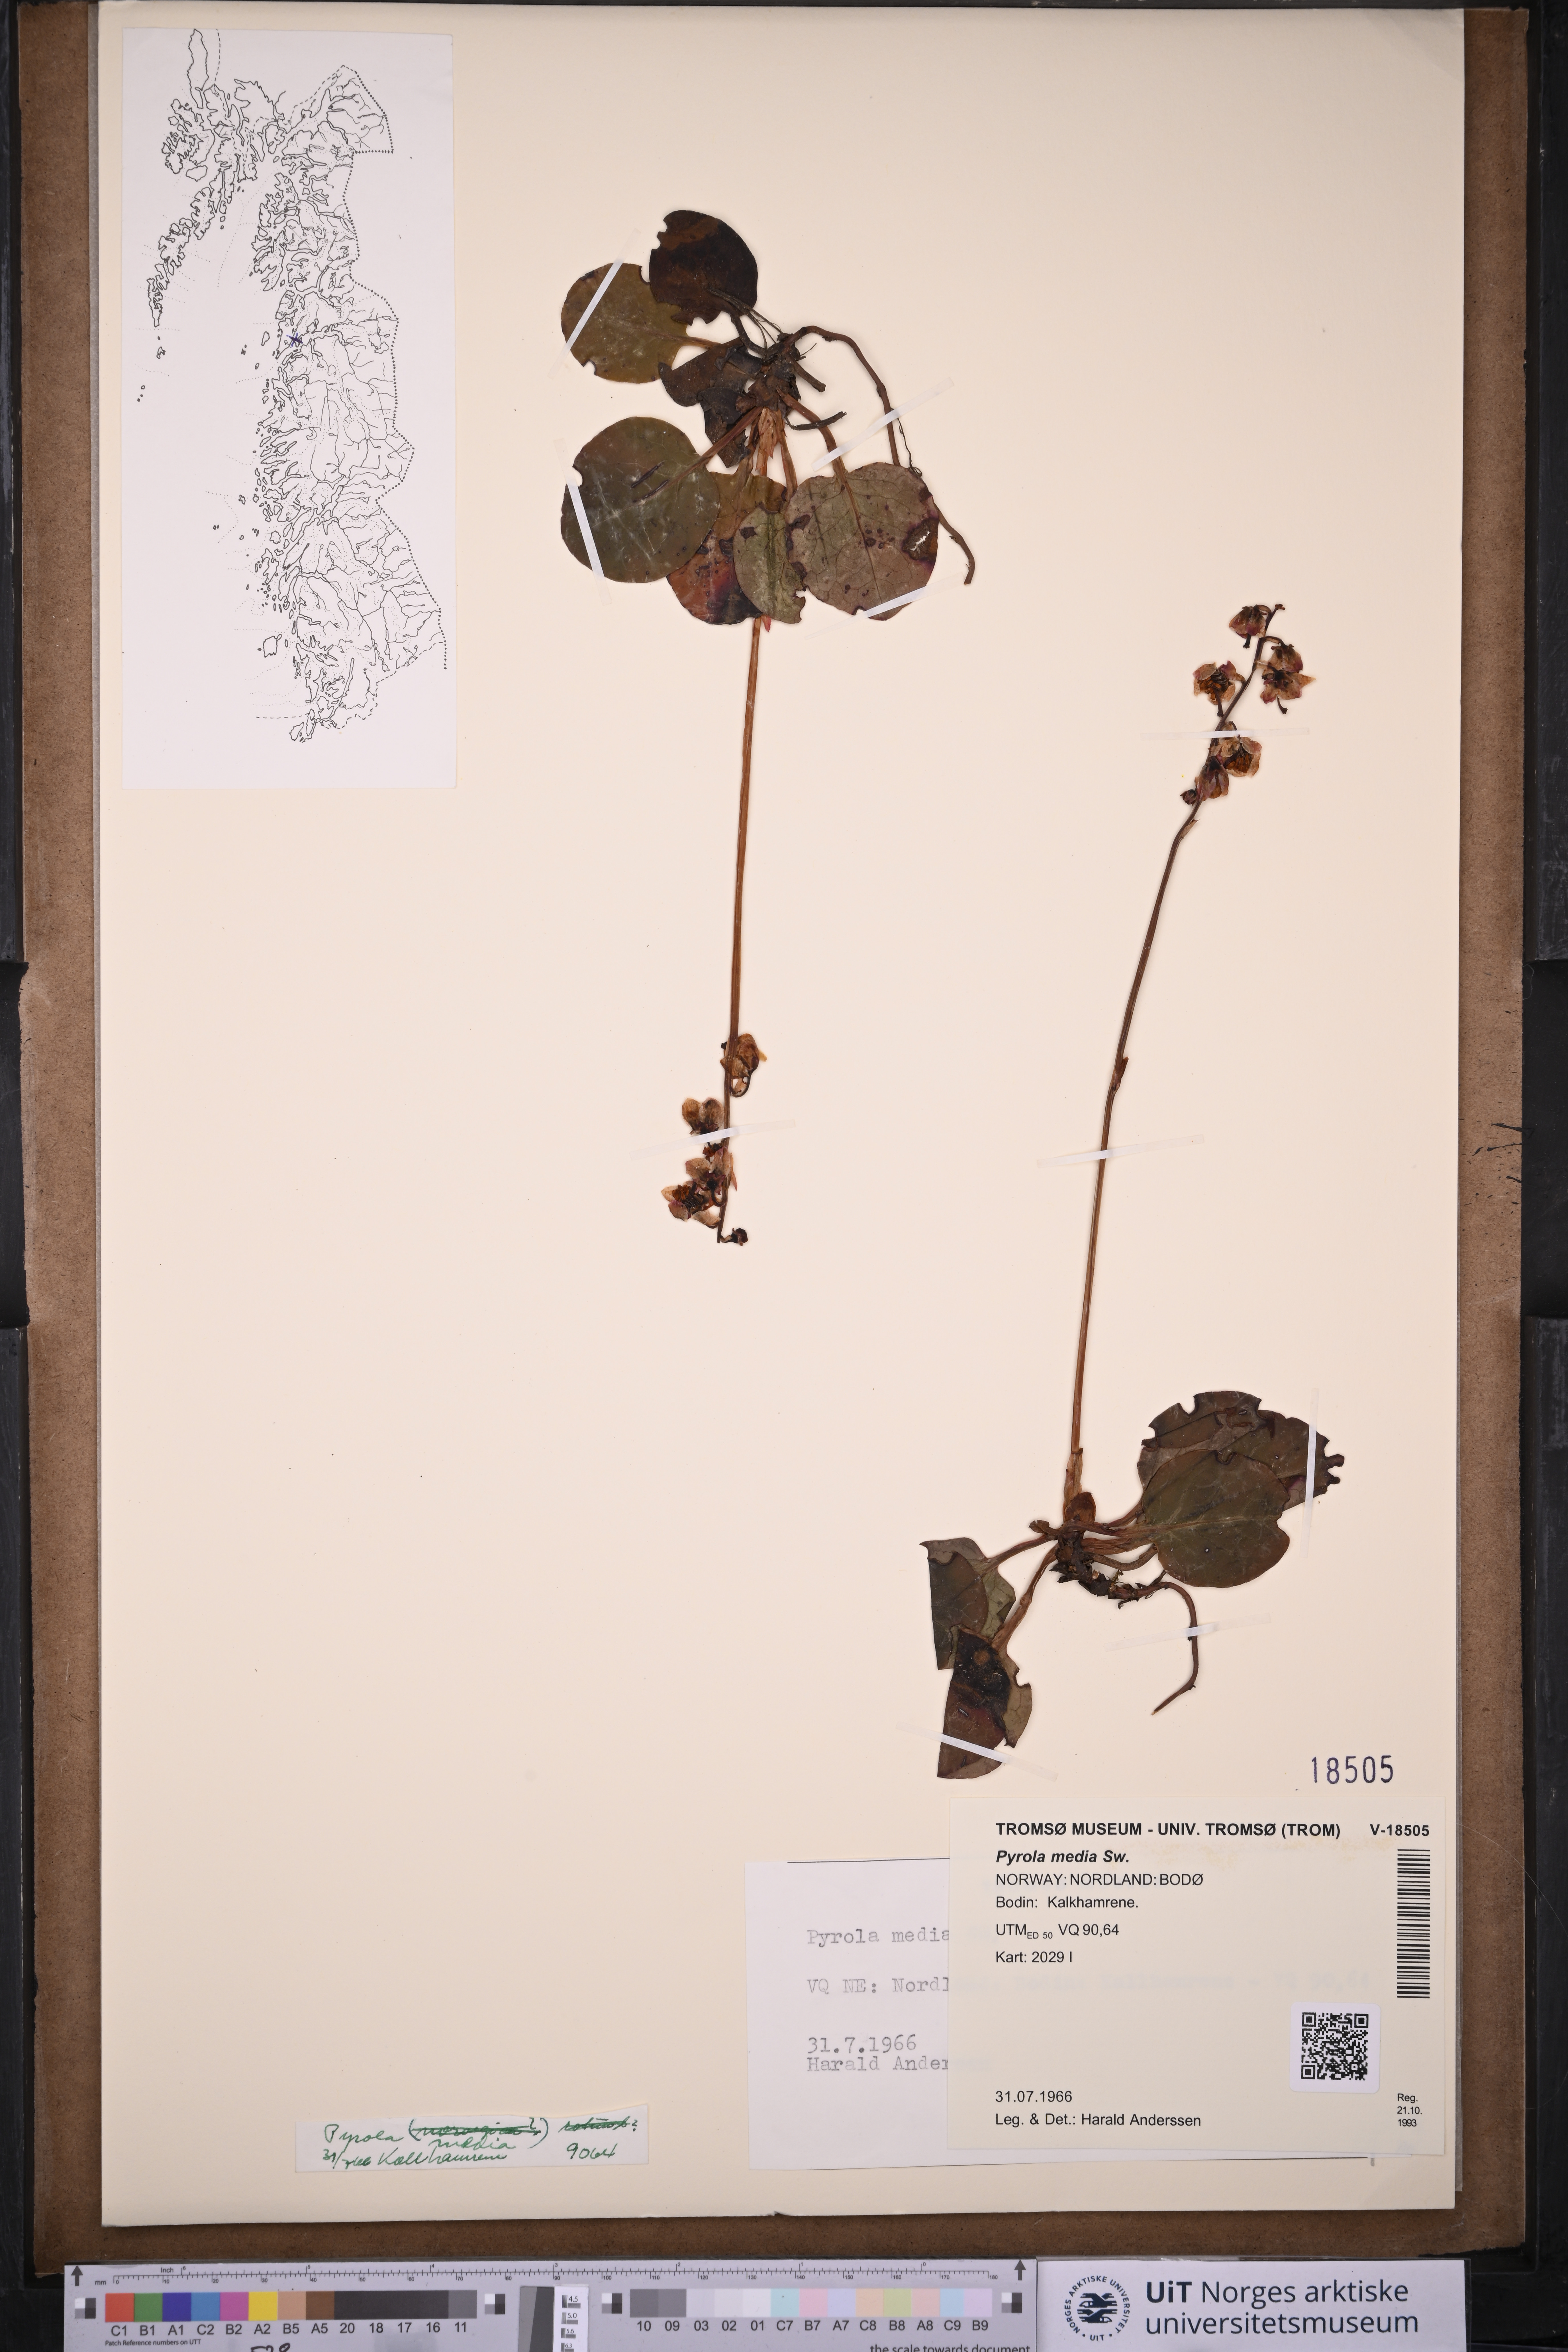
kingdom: Plantae
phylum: Tracheophyta
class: Magnoliopsida
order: Ericales
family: Ericaceae
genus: Pyrola
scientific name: Pyrola media
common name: Intermediate wintergreen
